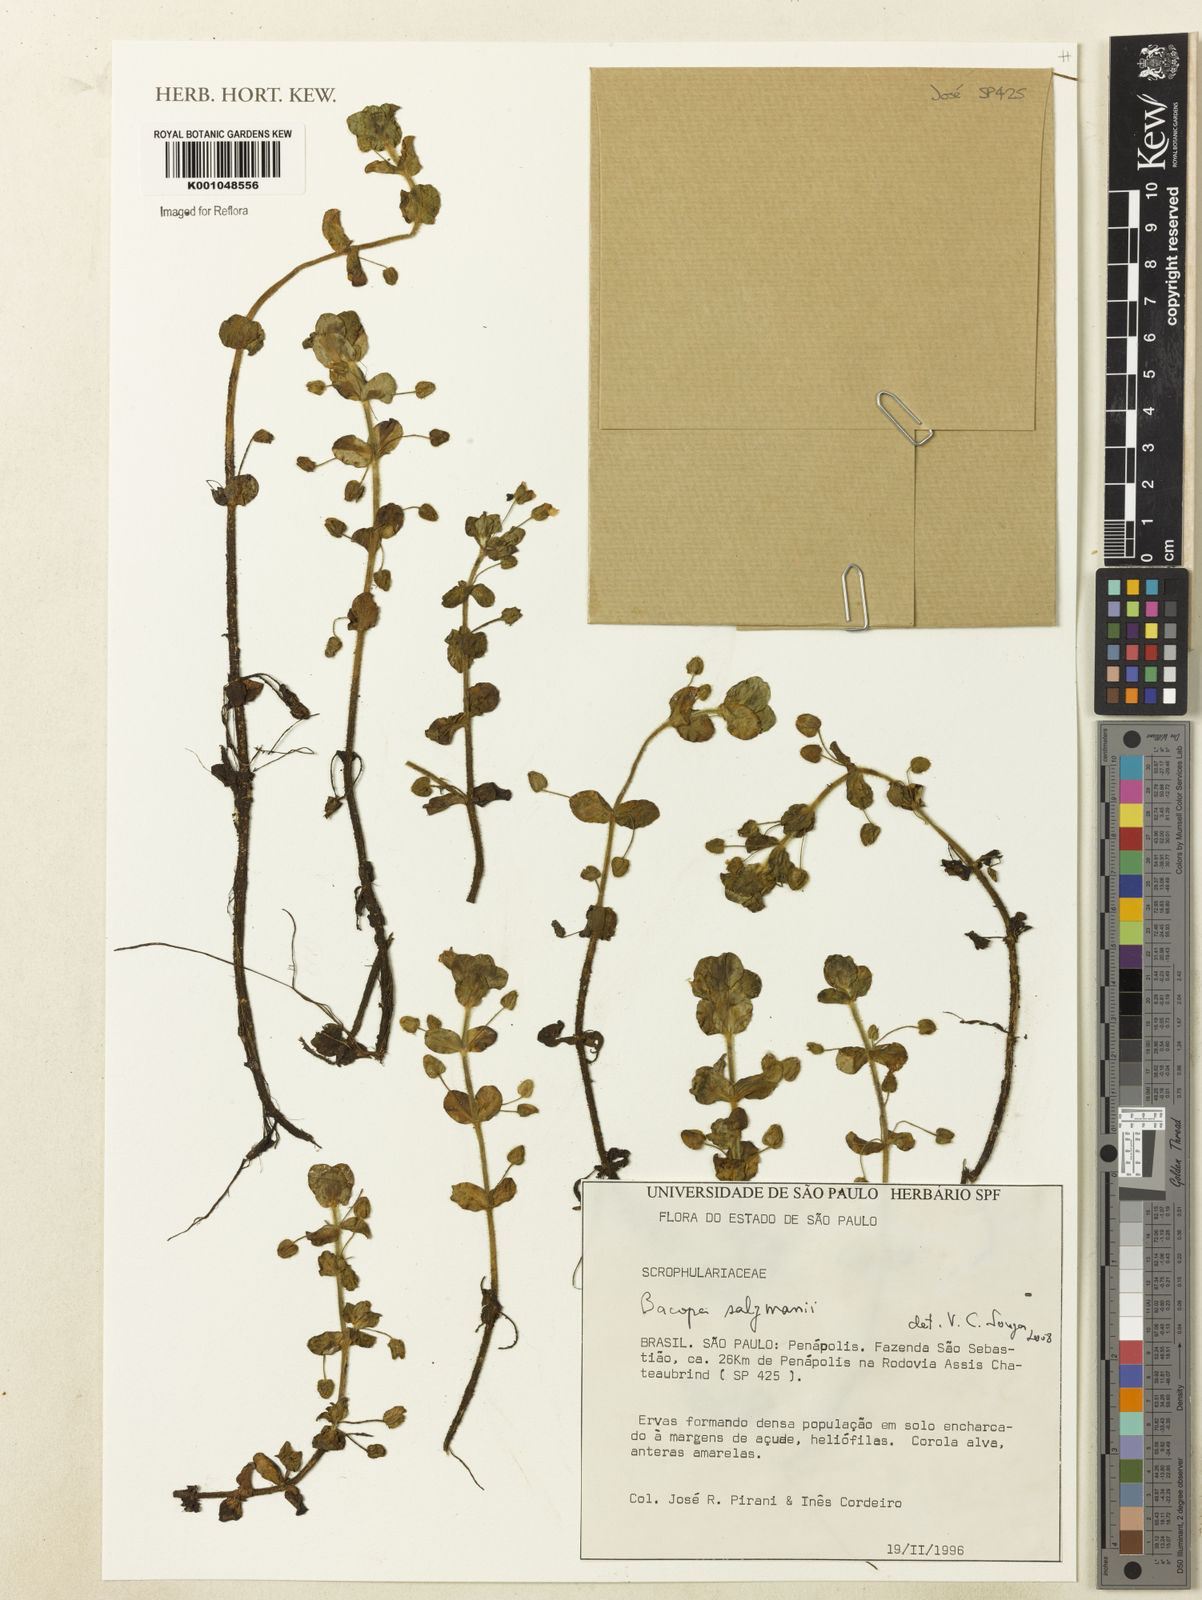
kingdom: Plantae
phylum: Tracheophyta
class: Magnoliopsida
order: Lamiales
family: Plantaginaceae
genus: Bacopa
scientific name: Bacopa salzmannii
